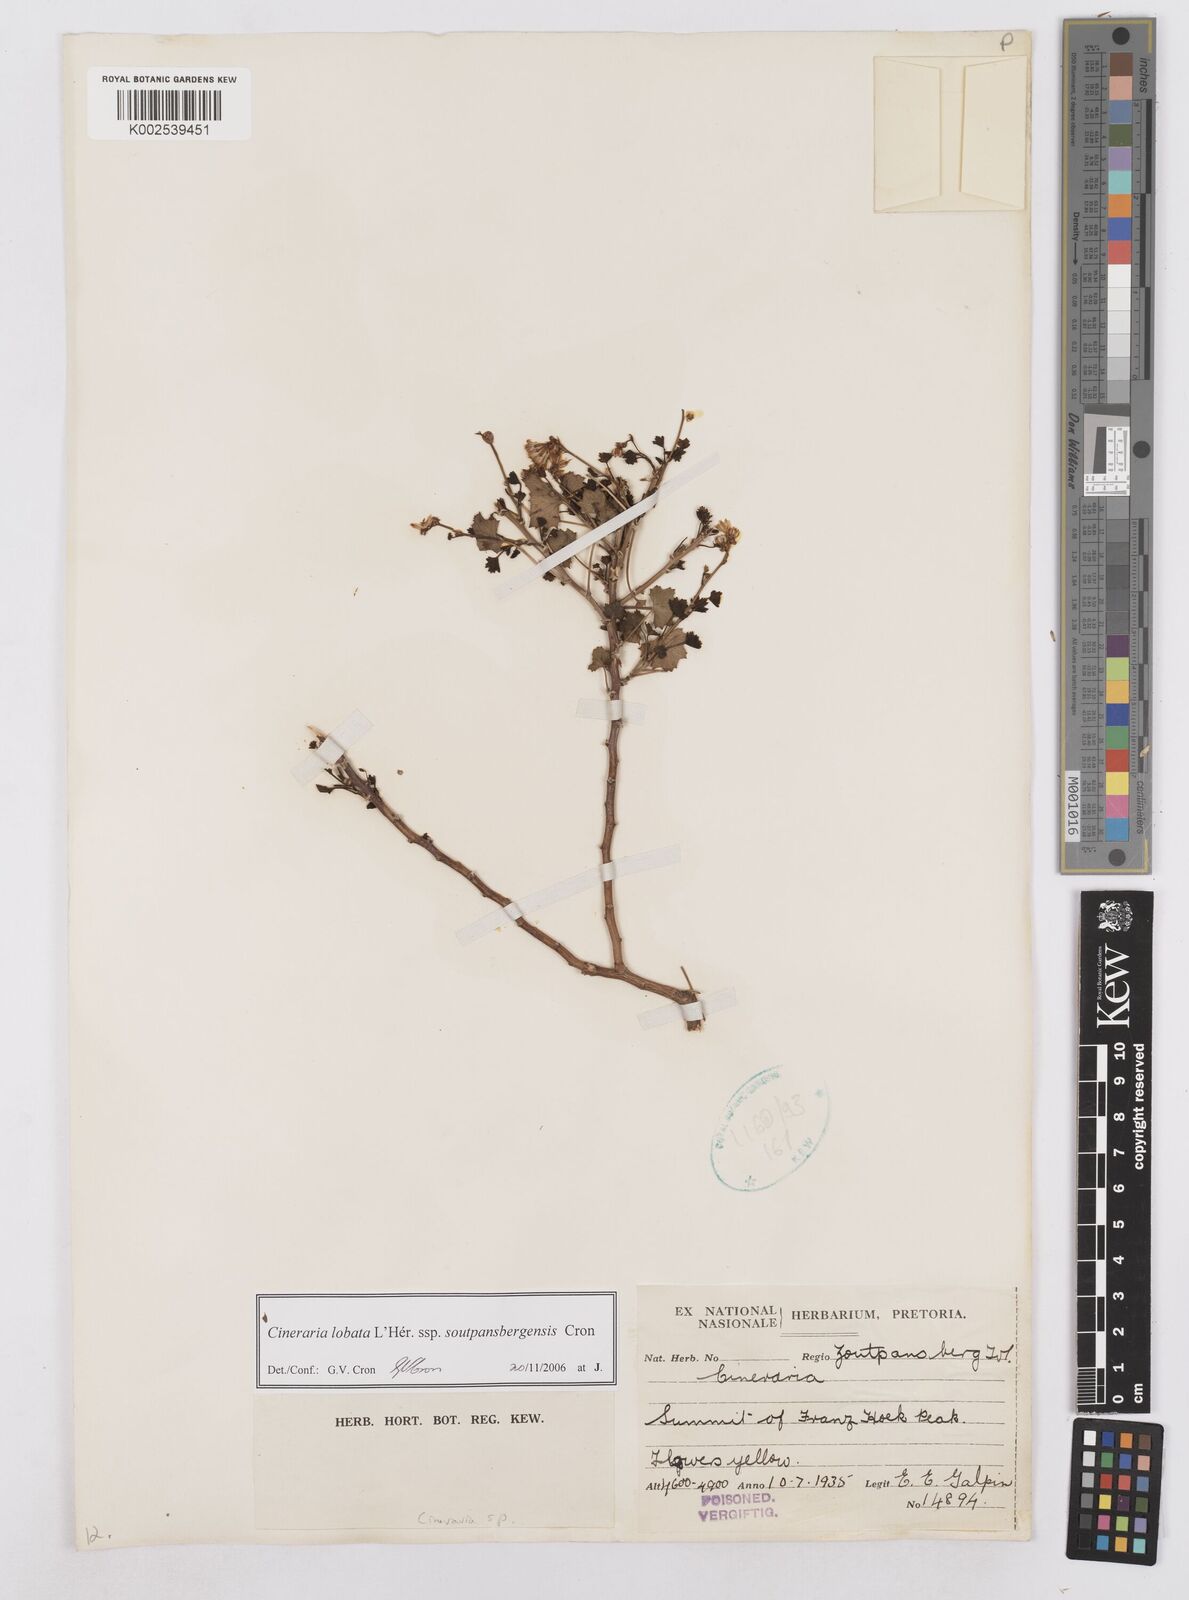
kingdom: Plantae
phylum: Tracheophyta
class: Magnoliopsida
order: Asterales
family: Asteraceae
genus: Cineraria
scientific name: Cineraria lobata
